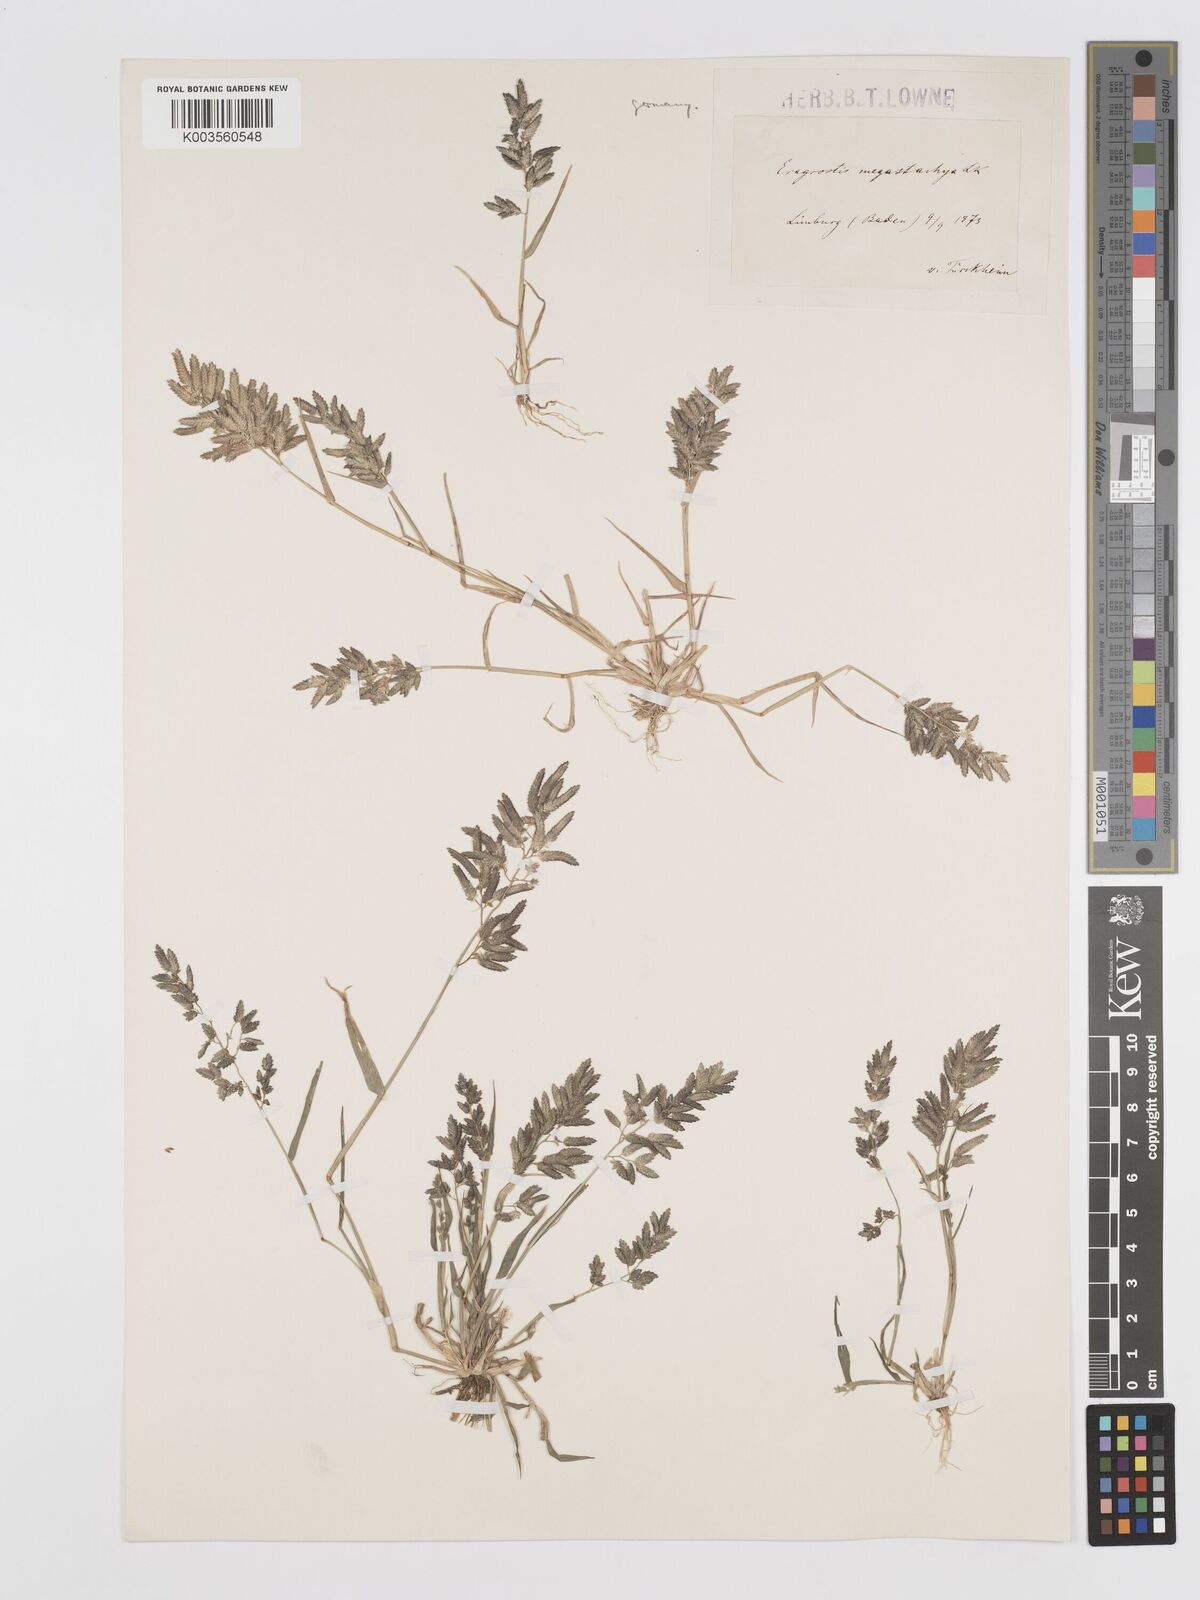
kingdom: Plantae
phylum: Tracheophyta
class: Liliopsida
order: Poales
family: Poaceae
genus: Eragrostis
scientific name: Eragrostis cilianensis
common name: Stinkgrass
